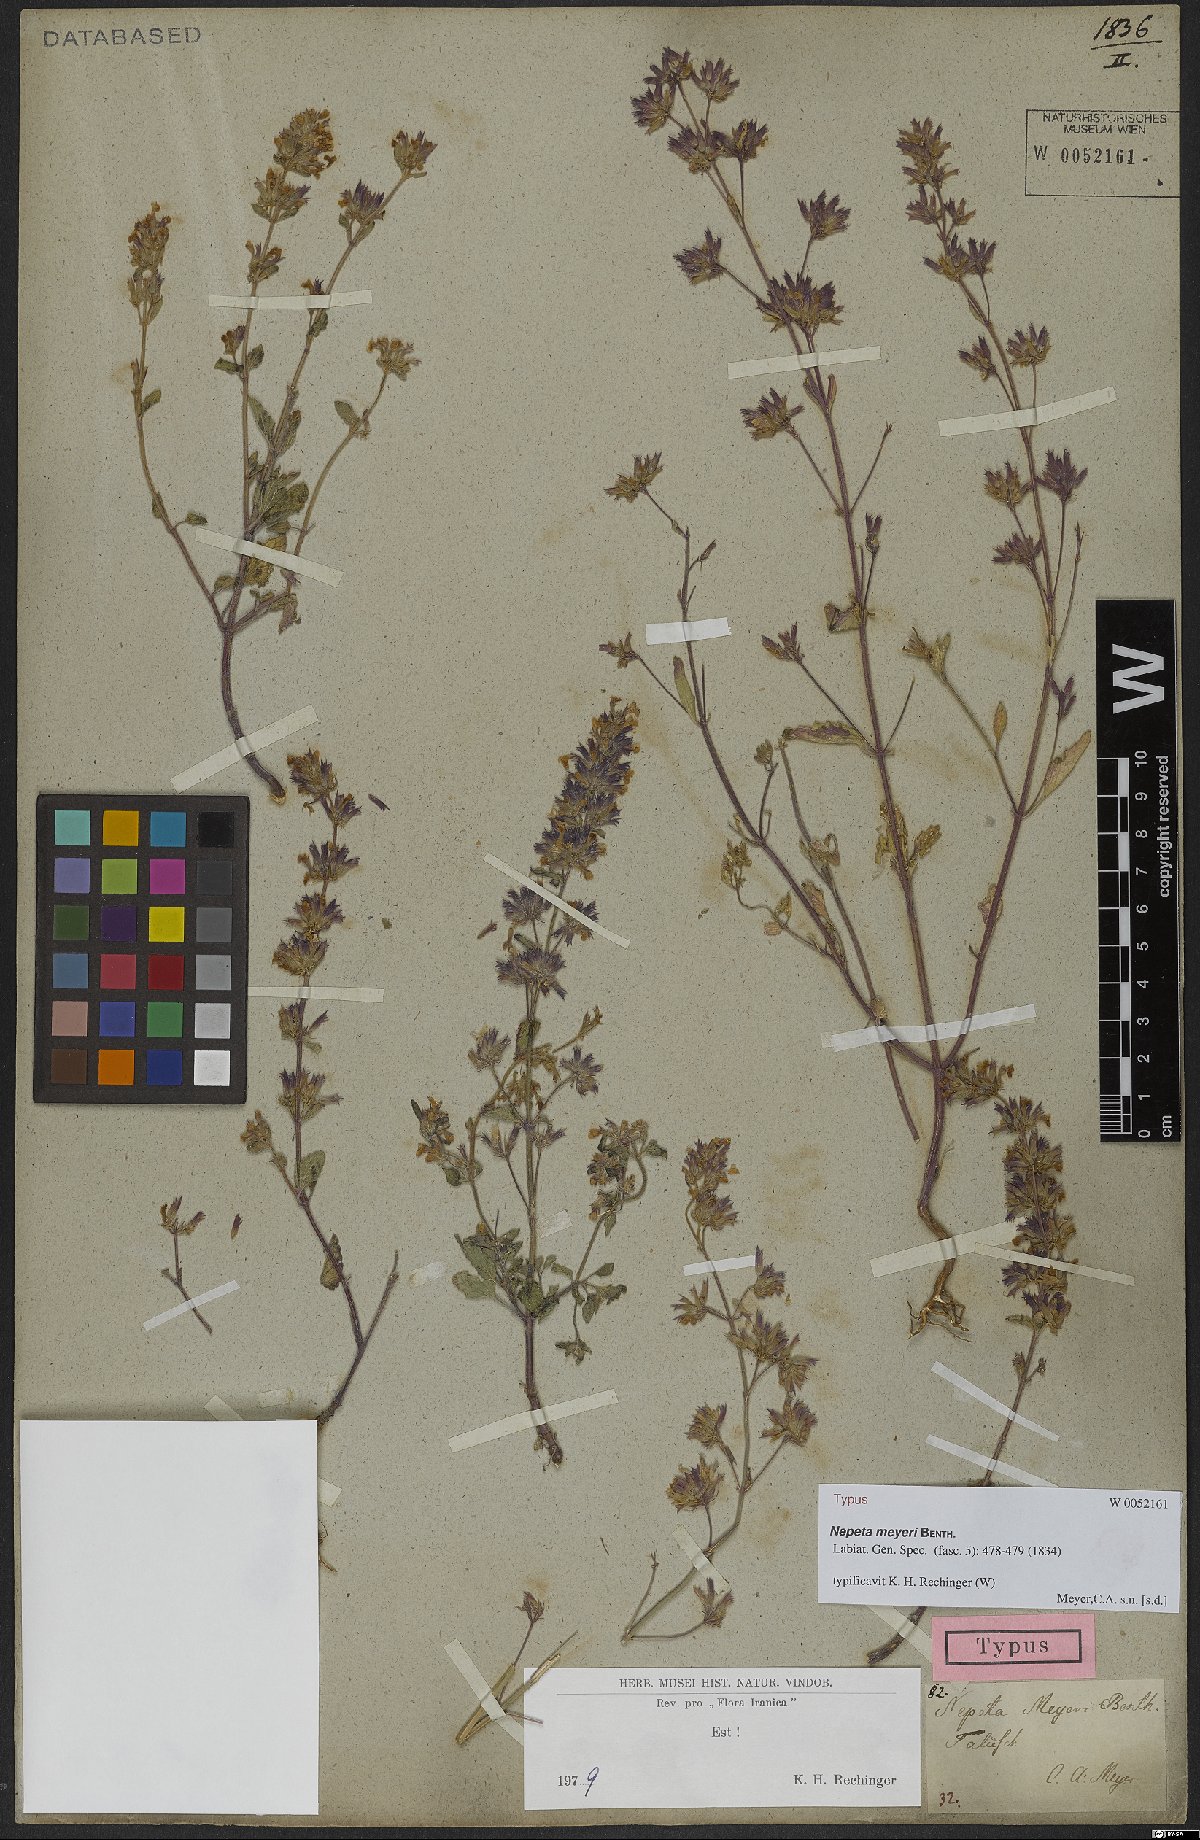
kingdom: Plantae
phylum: Tracheophyta
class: Magnoliopsida
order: Lamiales
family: Lamiaceae
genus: Nepeta
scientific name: Nepeta meyeri
